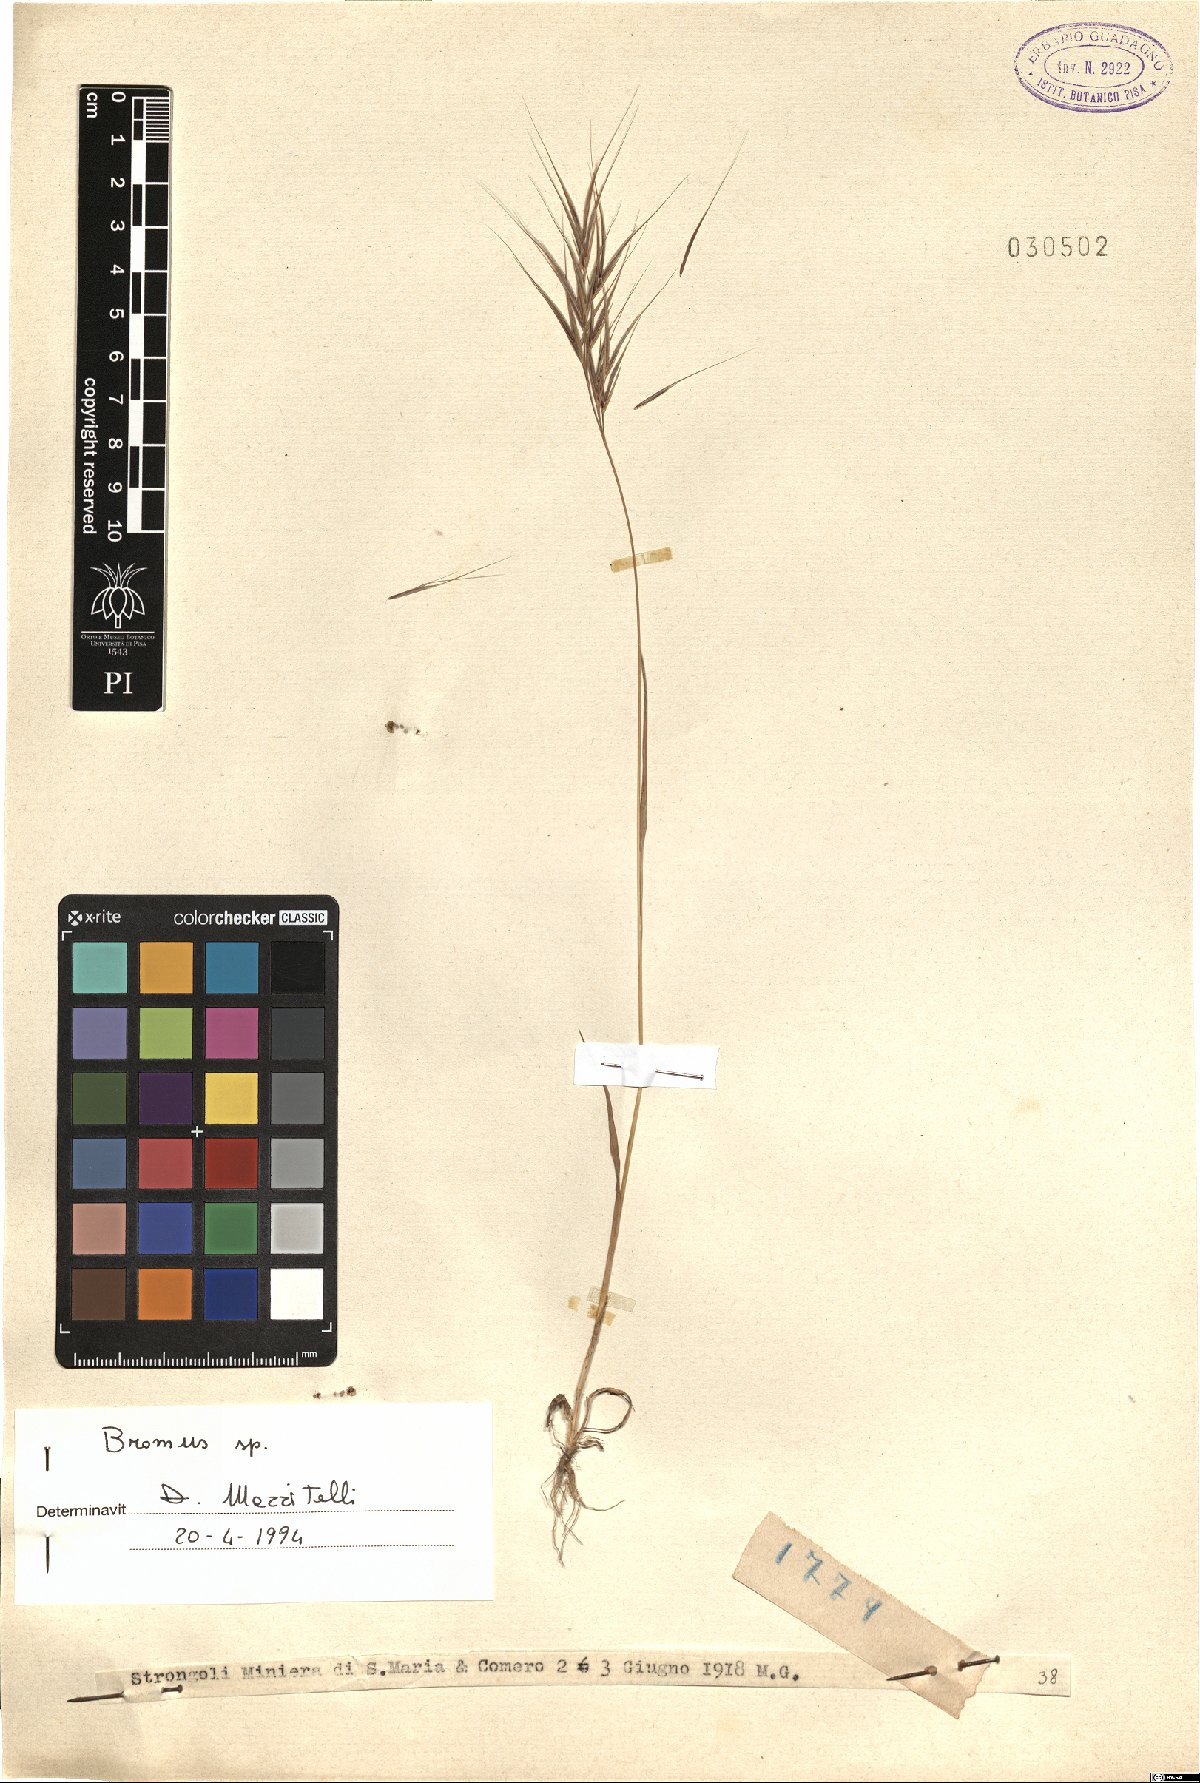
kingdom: Plantae
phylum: Tracheophyta
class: Liliopsida
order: Poales
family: Poaceae
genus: Bromus
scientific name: Bromus
